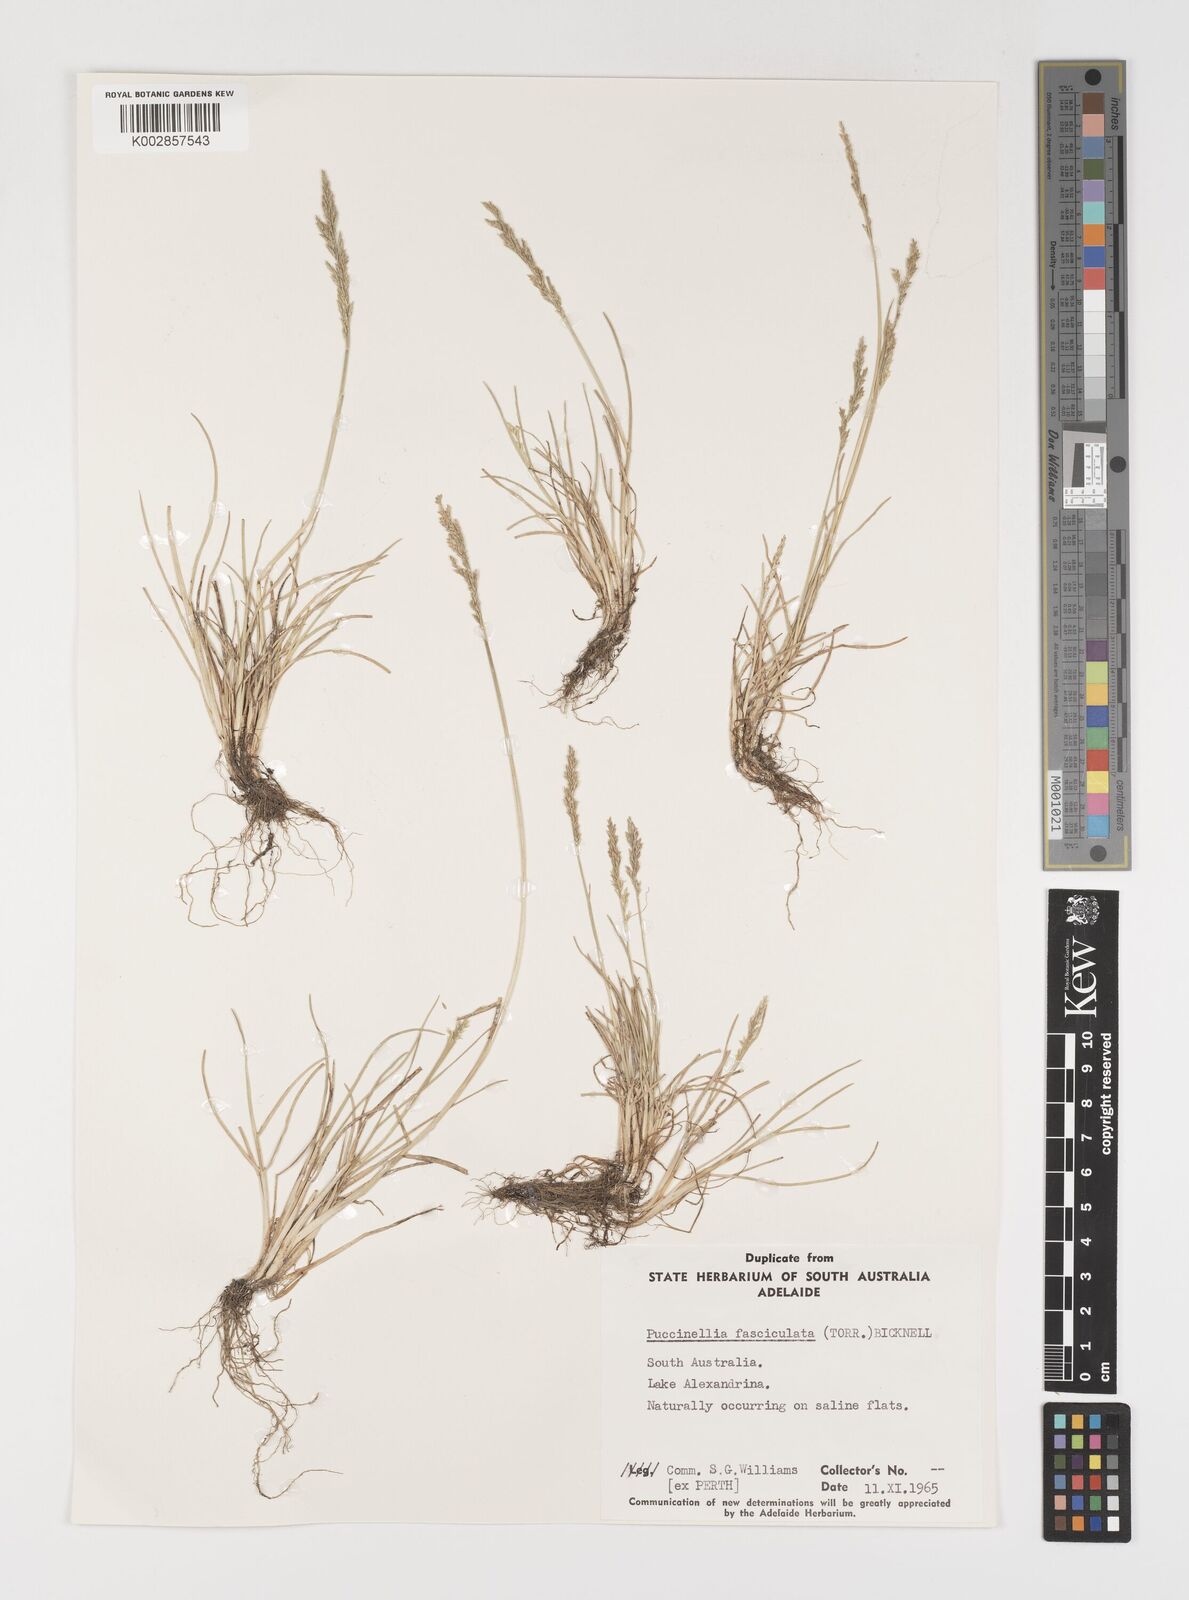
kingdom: Plantae
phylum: Tracheophyta
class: Liliopsida
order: Poales
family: Poaceae
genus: Puccinellia
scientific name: Puccinellia fasciculata
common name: Borrer's saltmarsh-grass
